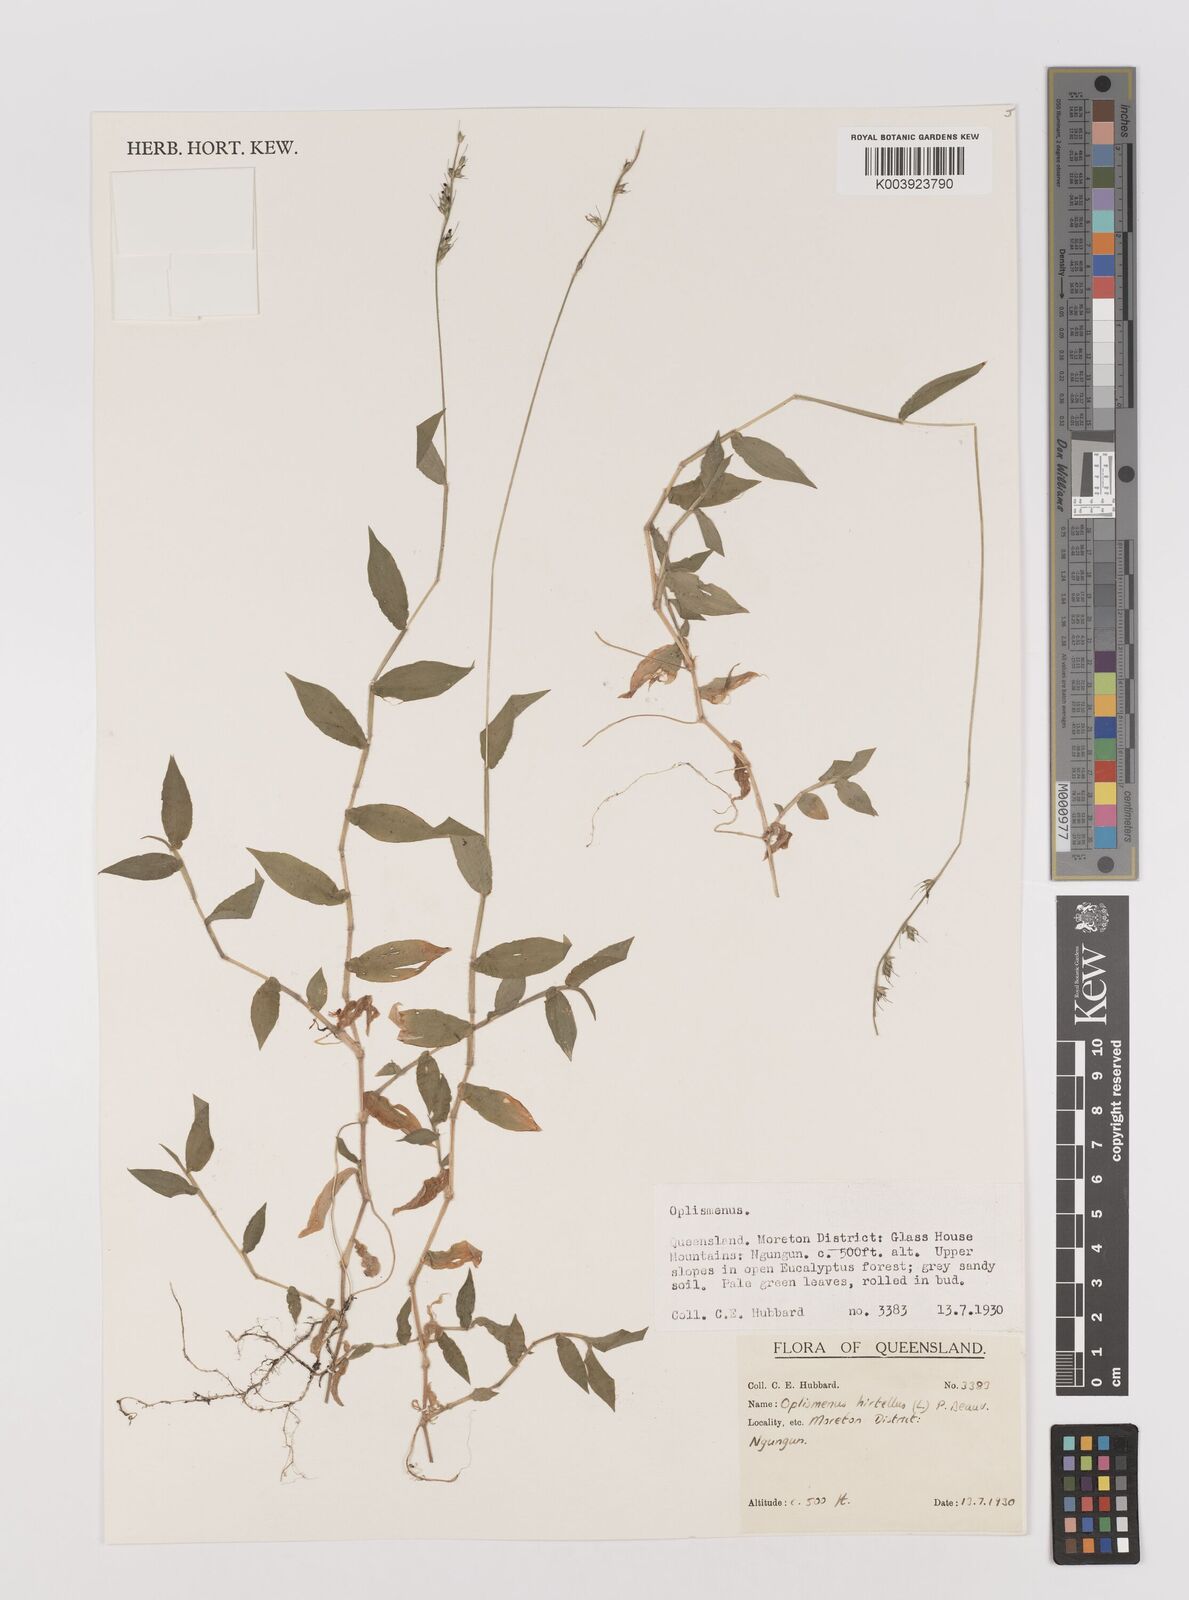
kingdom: Plantae
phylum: Tracheophyta
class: Liliopsida
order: Poales
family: Poaceae
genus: Oplismenus
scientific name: Oplismenus hirtellus
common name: Basketgrass
